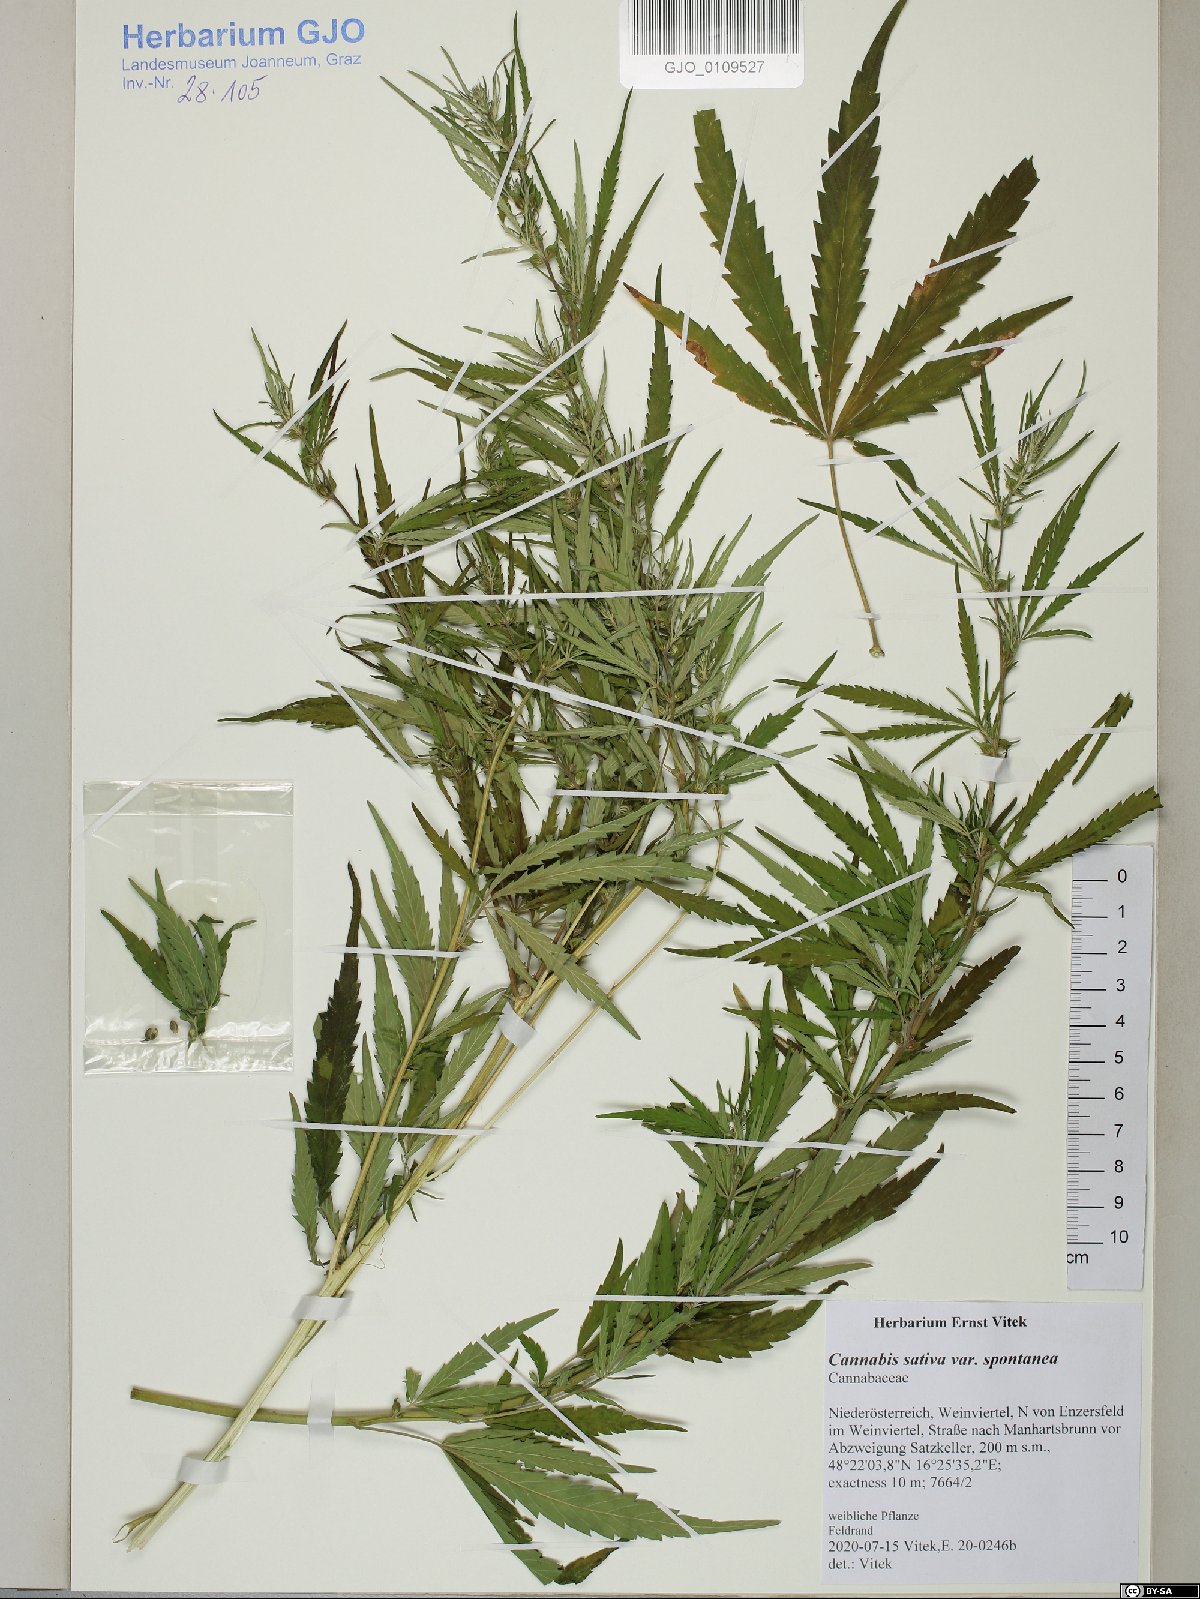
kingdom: Plantae
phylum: Tracheophyta
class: Magnoliopsida
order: Rosales
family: Cannabaceae
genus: Cannabis
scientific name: Cannabis sativa
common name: Hemp
